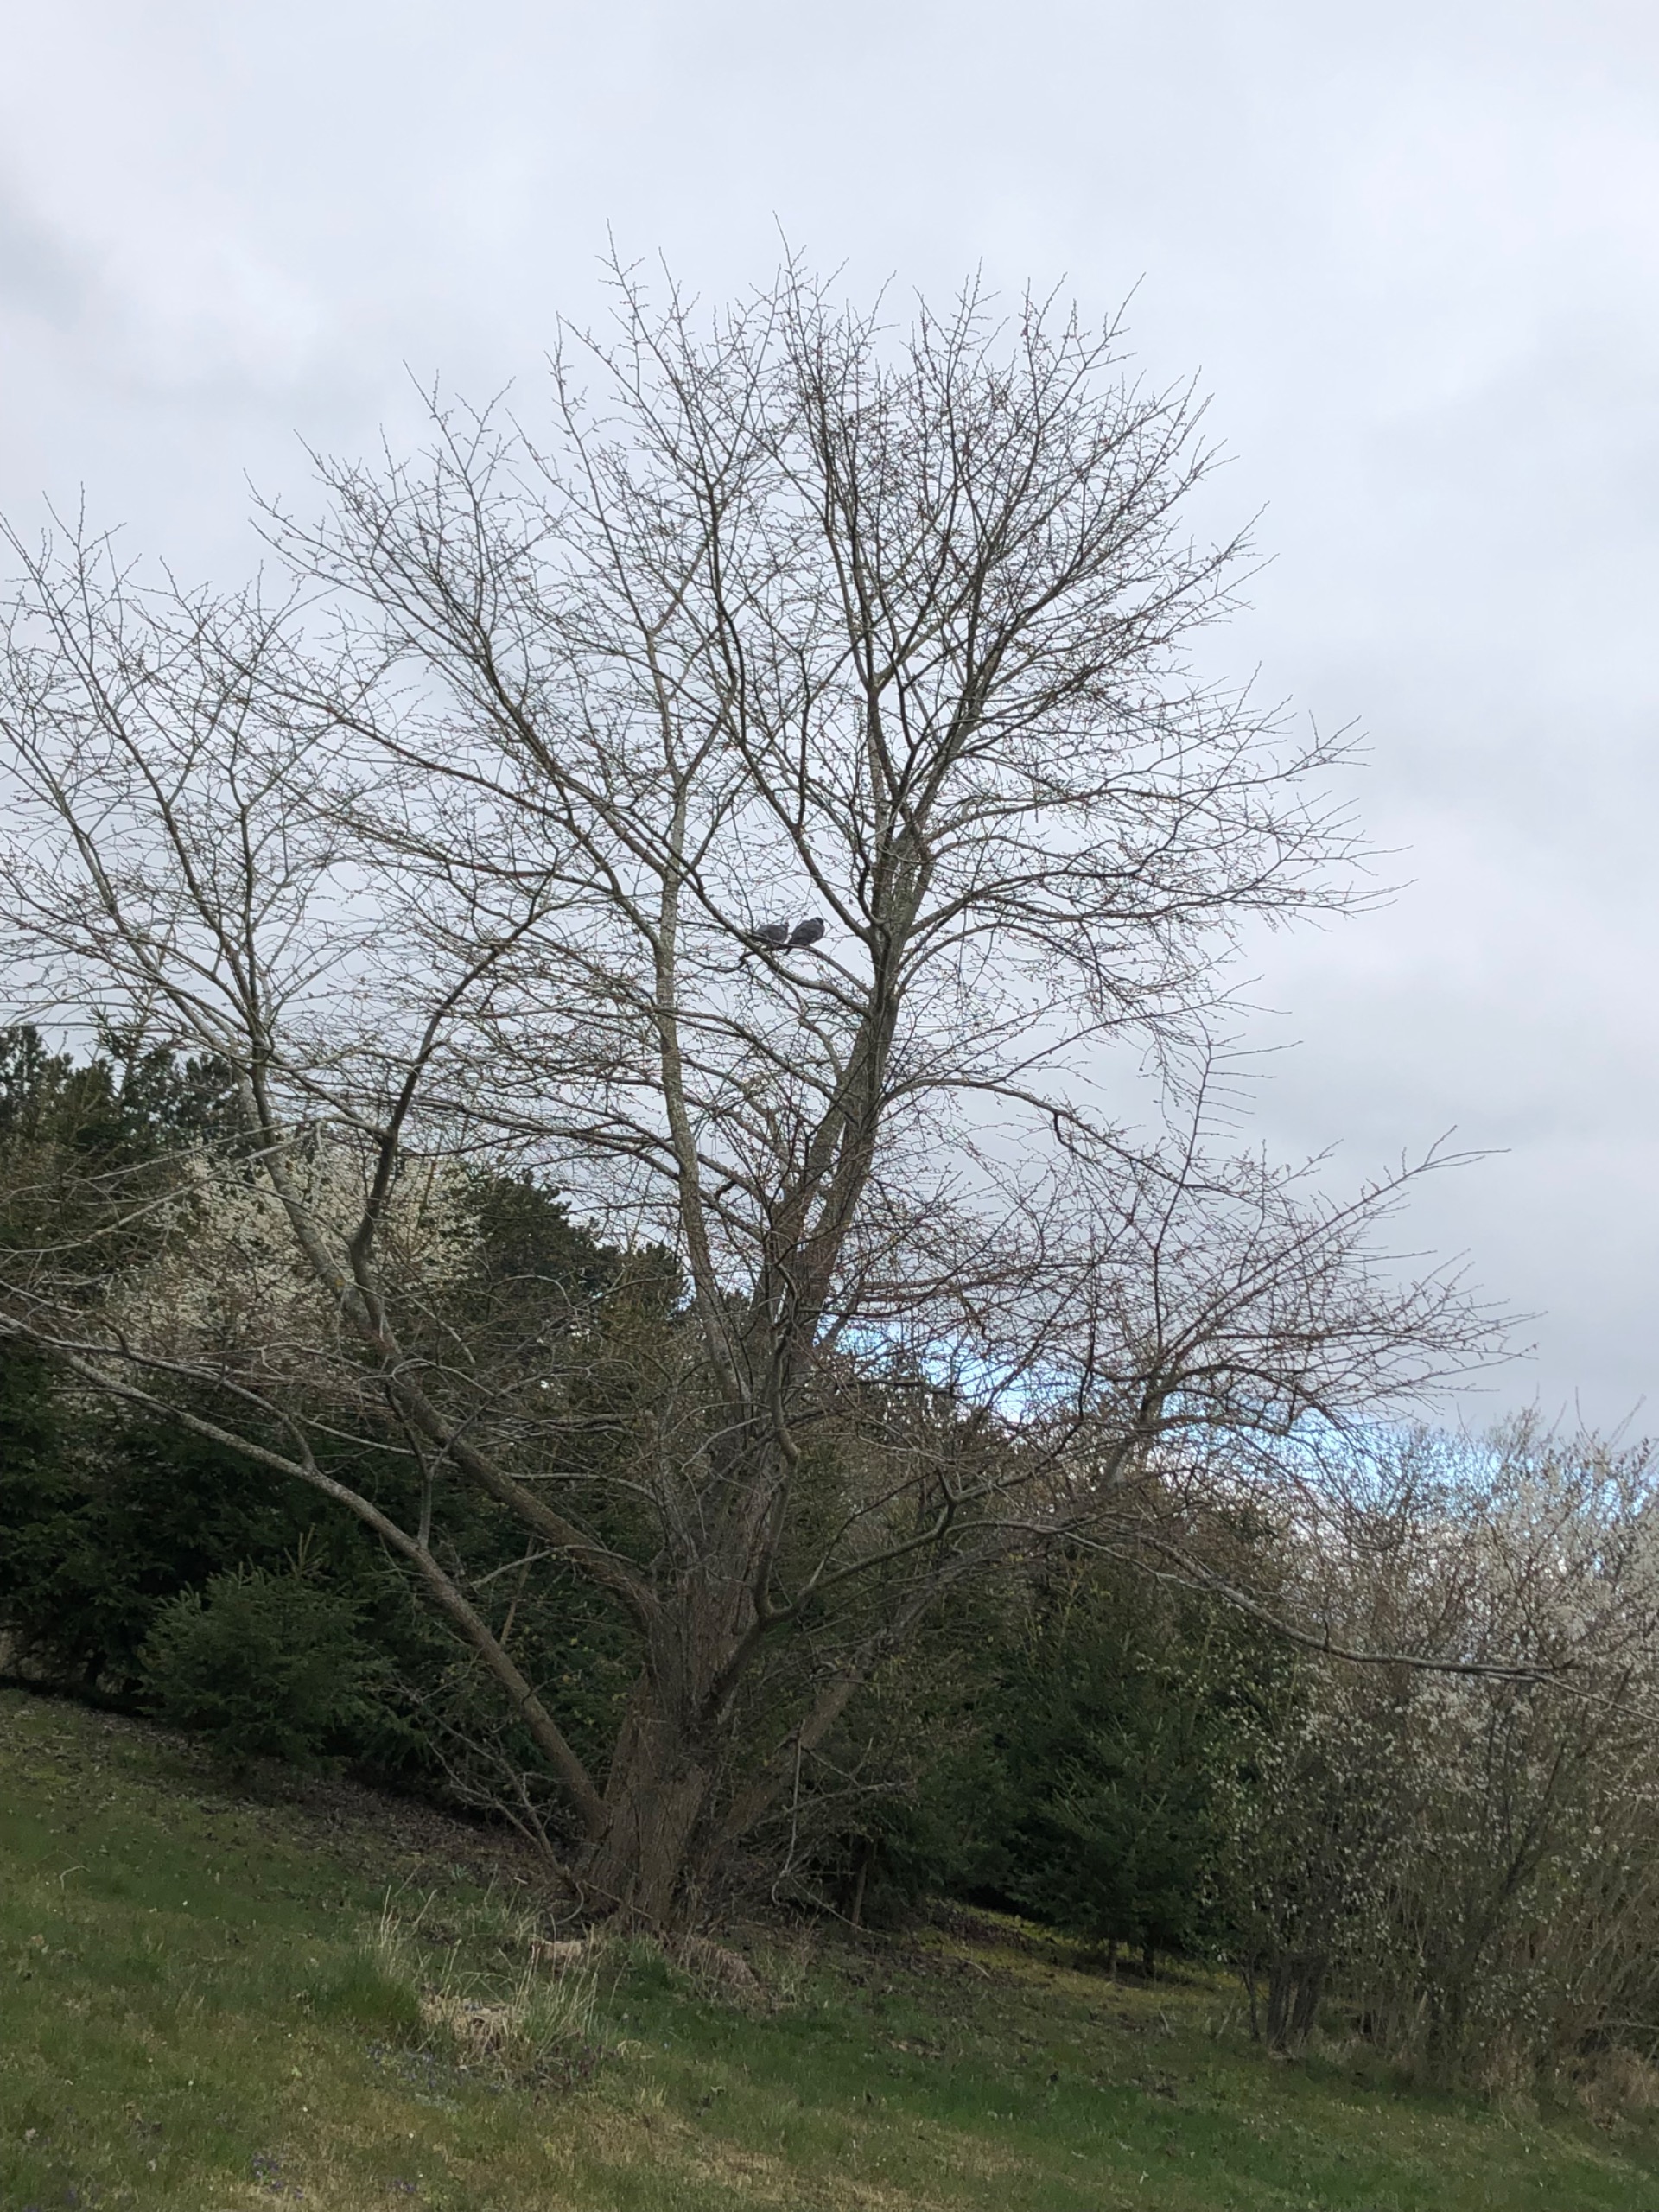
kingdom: Animalia
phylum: Chordata
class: Aves
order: Columbiformes
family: Columbidae
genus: Columba
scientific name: Columba palumbus
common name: Ringdue
